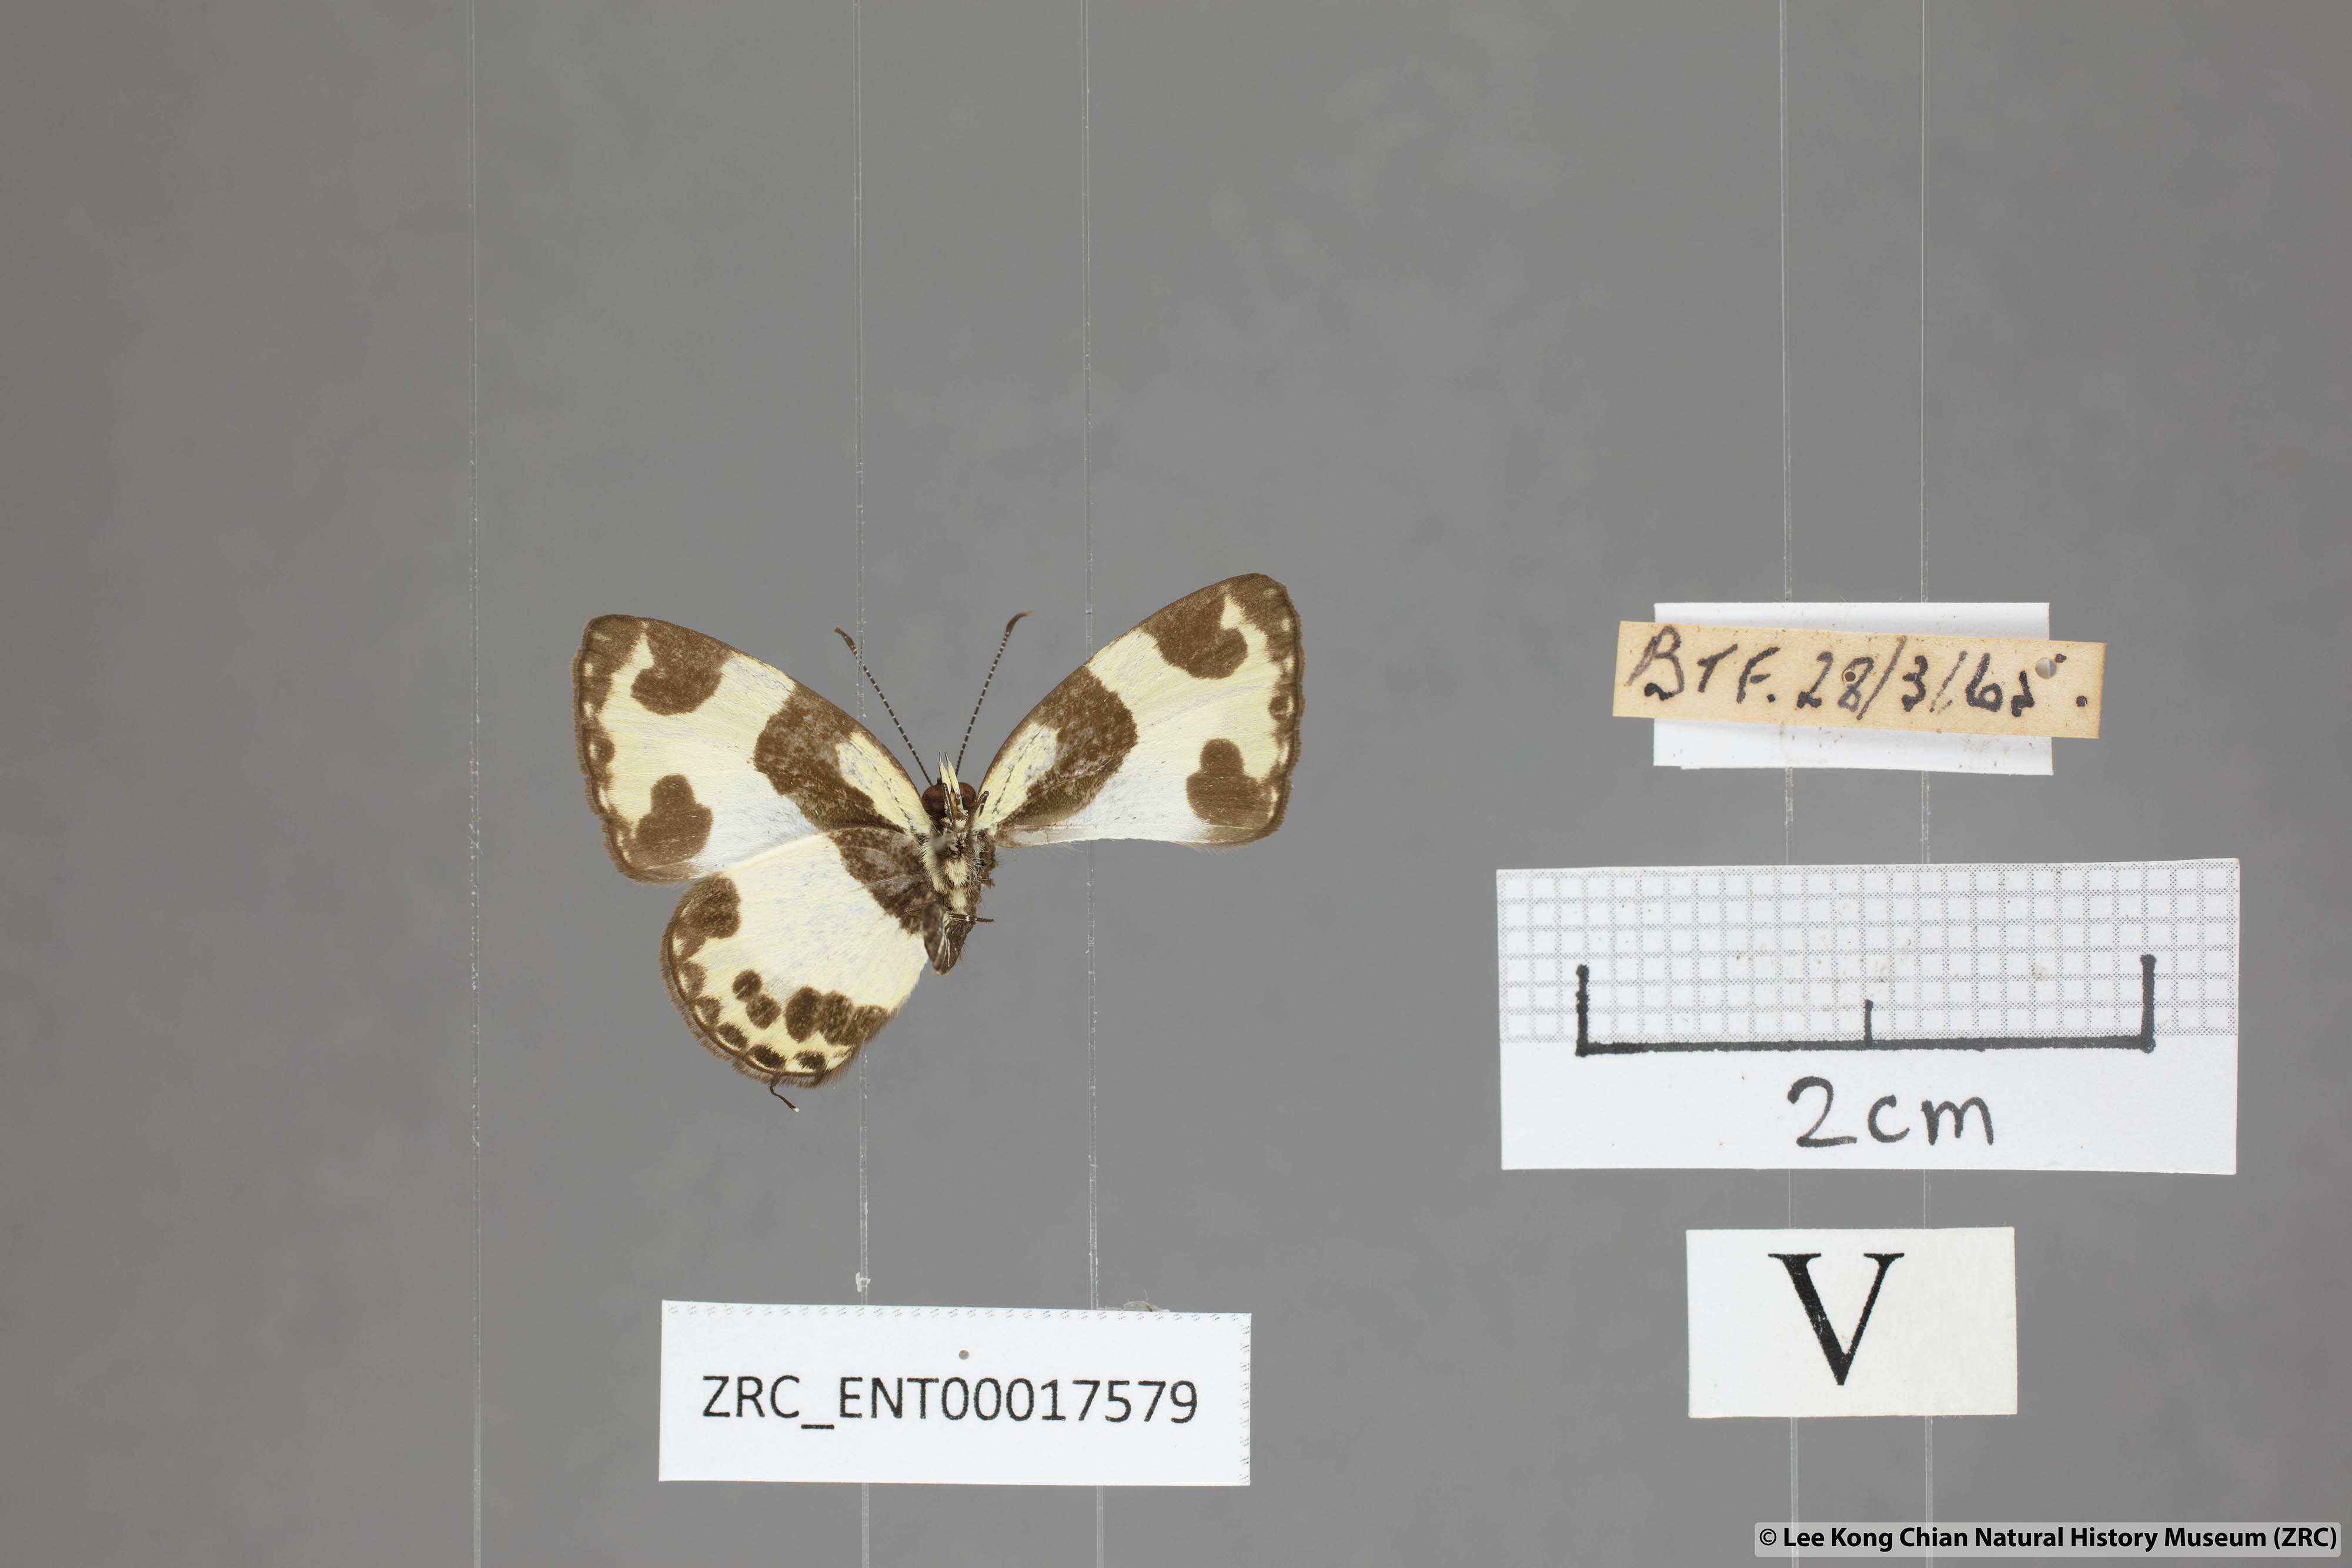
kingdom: Animalia
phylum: Arthropoda
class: Insecta
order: Lepidoptera
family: Lycaenidae
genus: Caleta
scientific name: Caleta elna
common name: Elbowed pierrot
